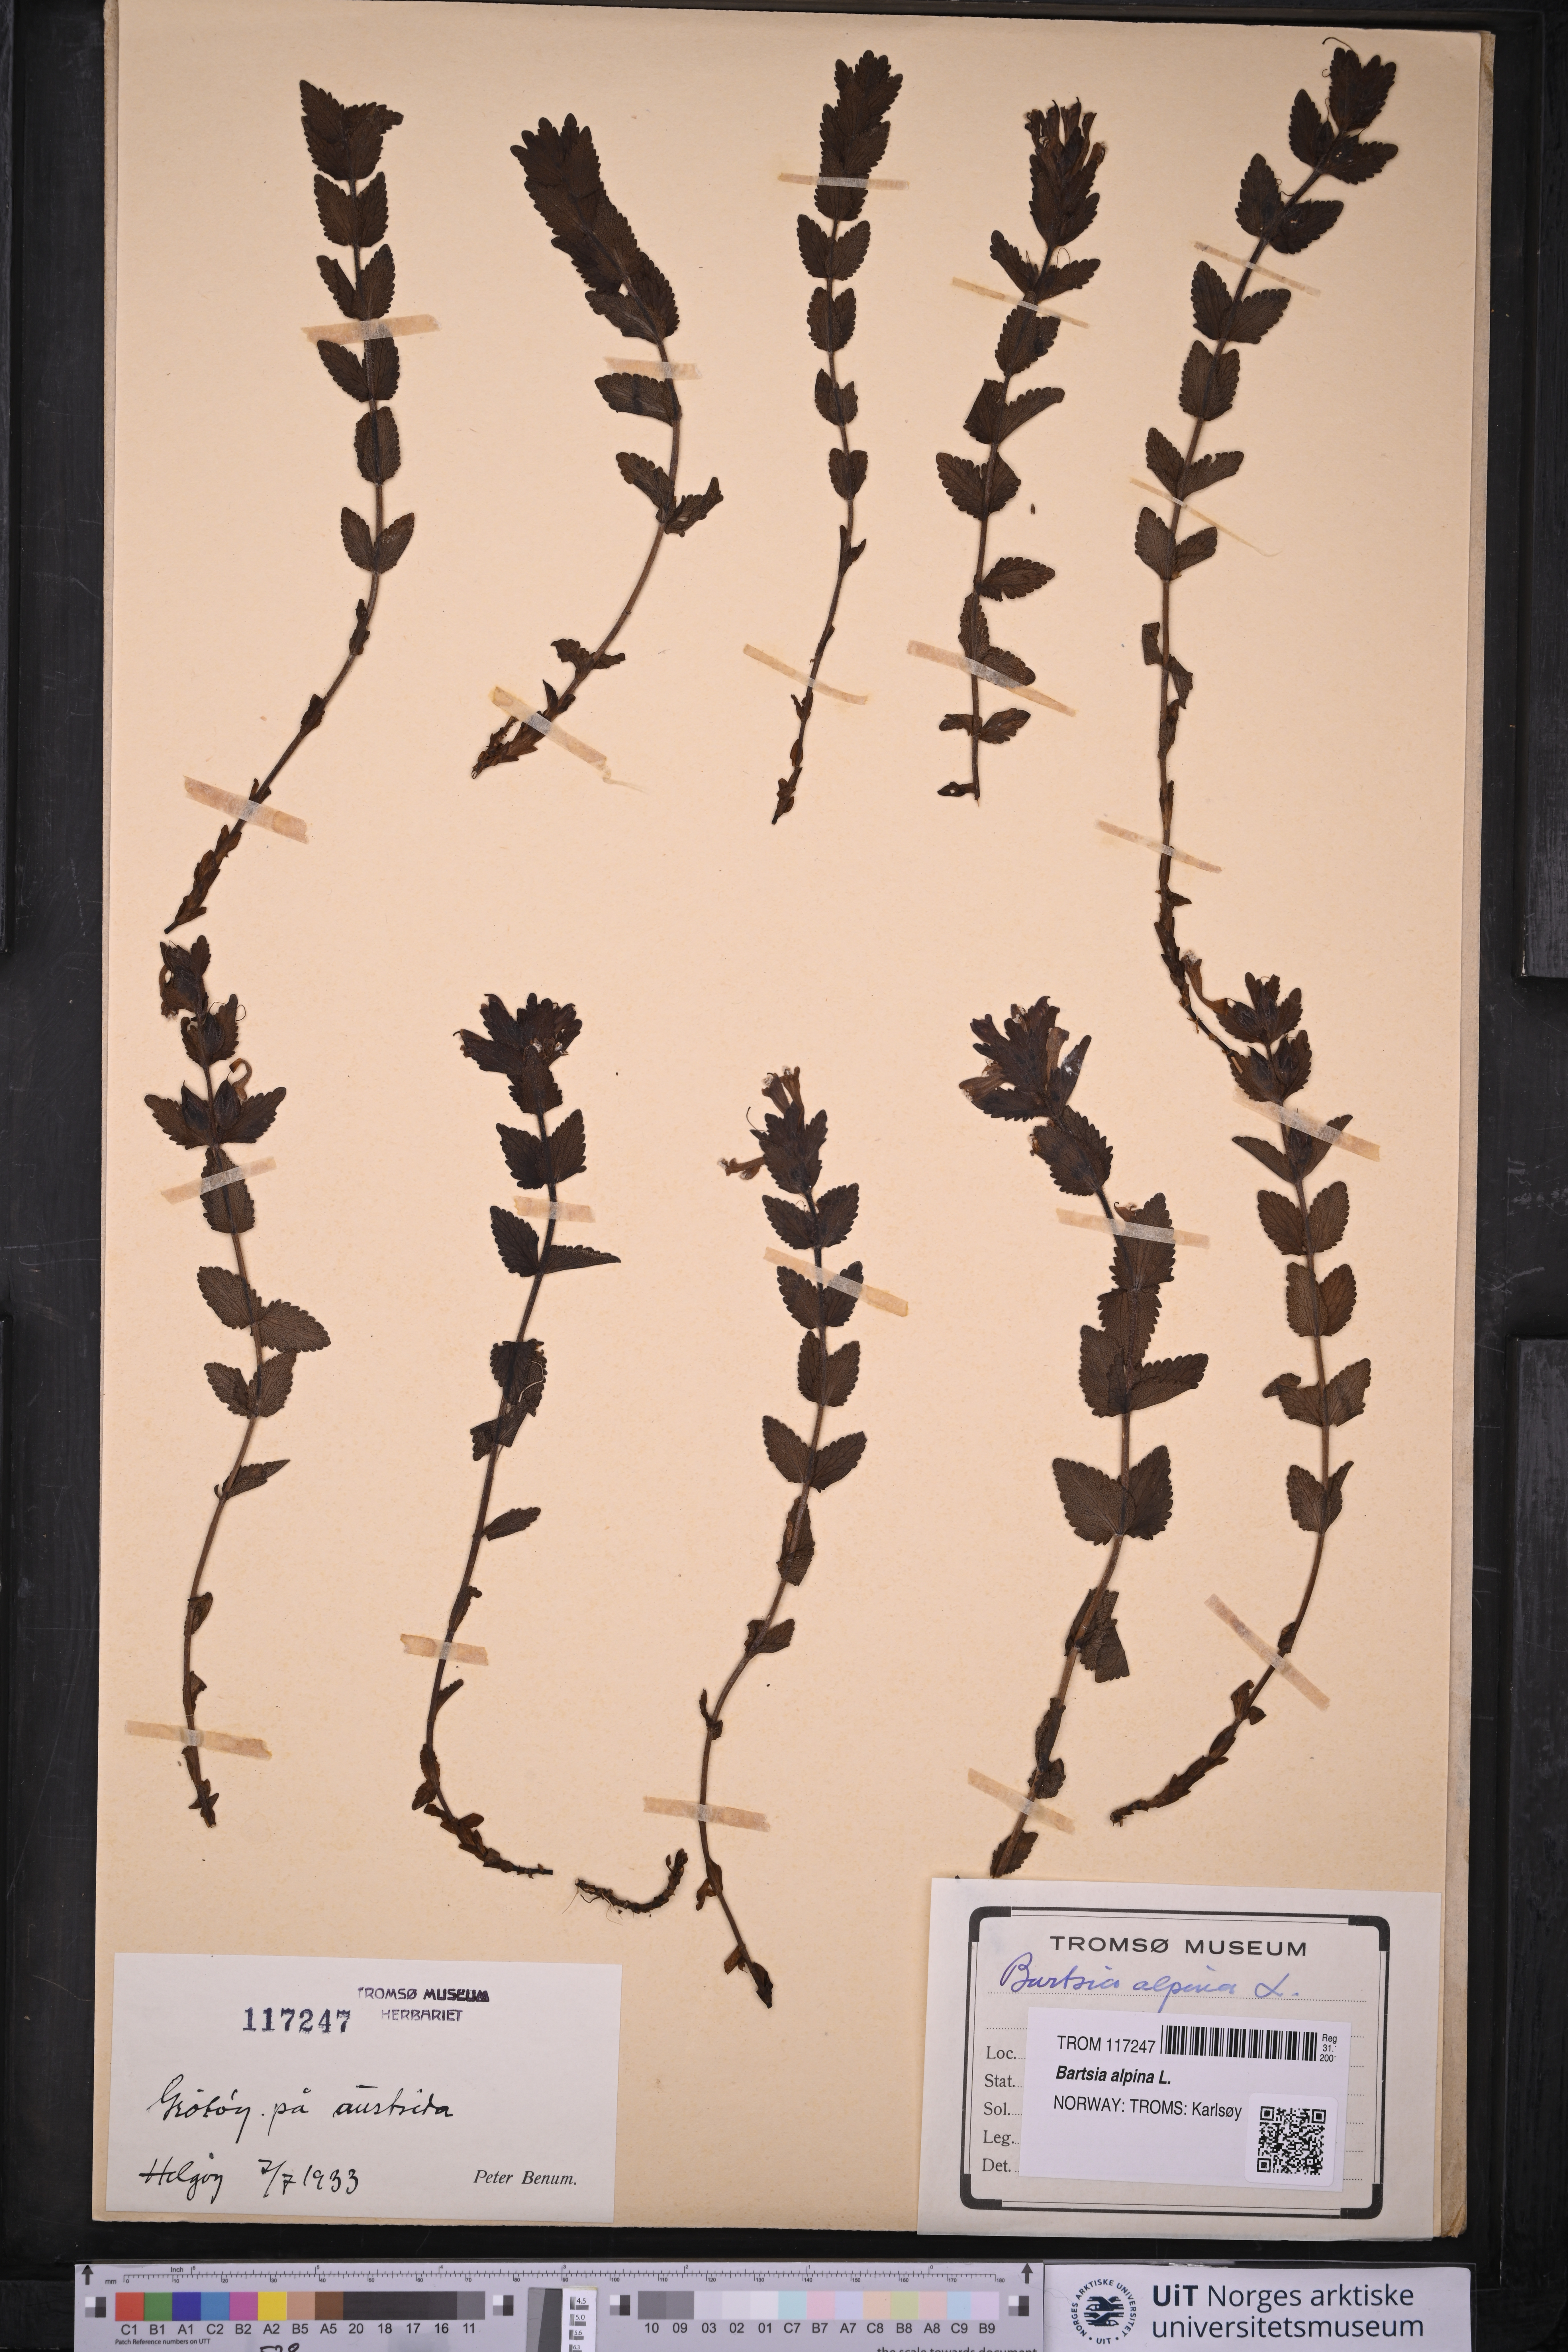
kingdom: Plantae
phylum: Tracheophyta
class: Magnoliopsida
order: Lamiales
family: Orobanchaceae
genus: Bartsia
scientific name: Bartsia alpina
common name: Alpine bartsia
